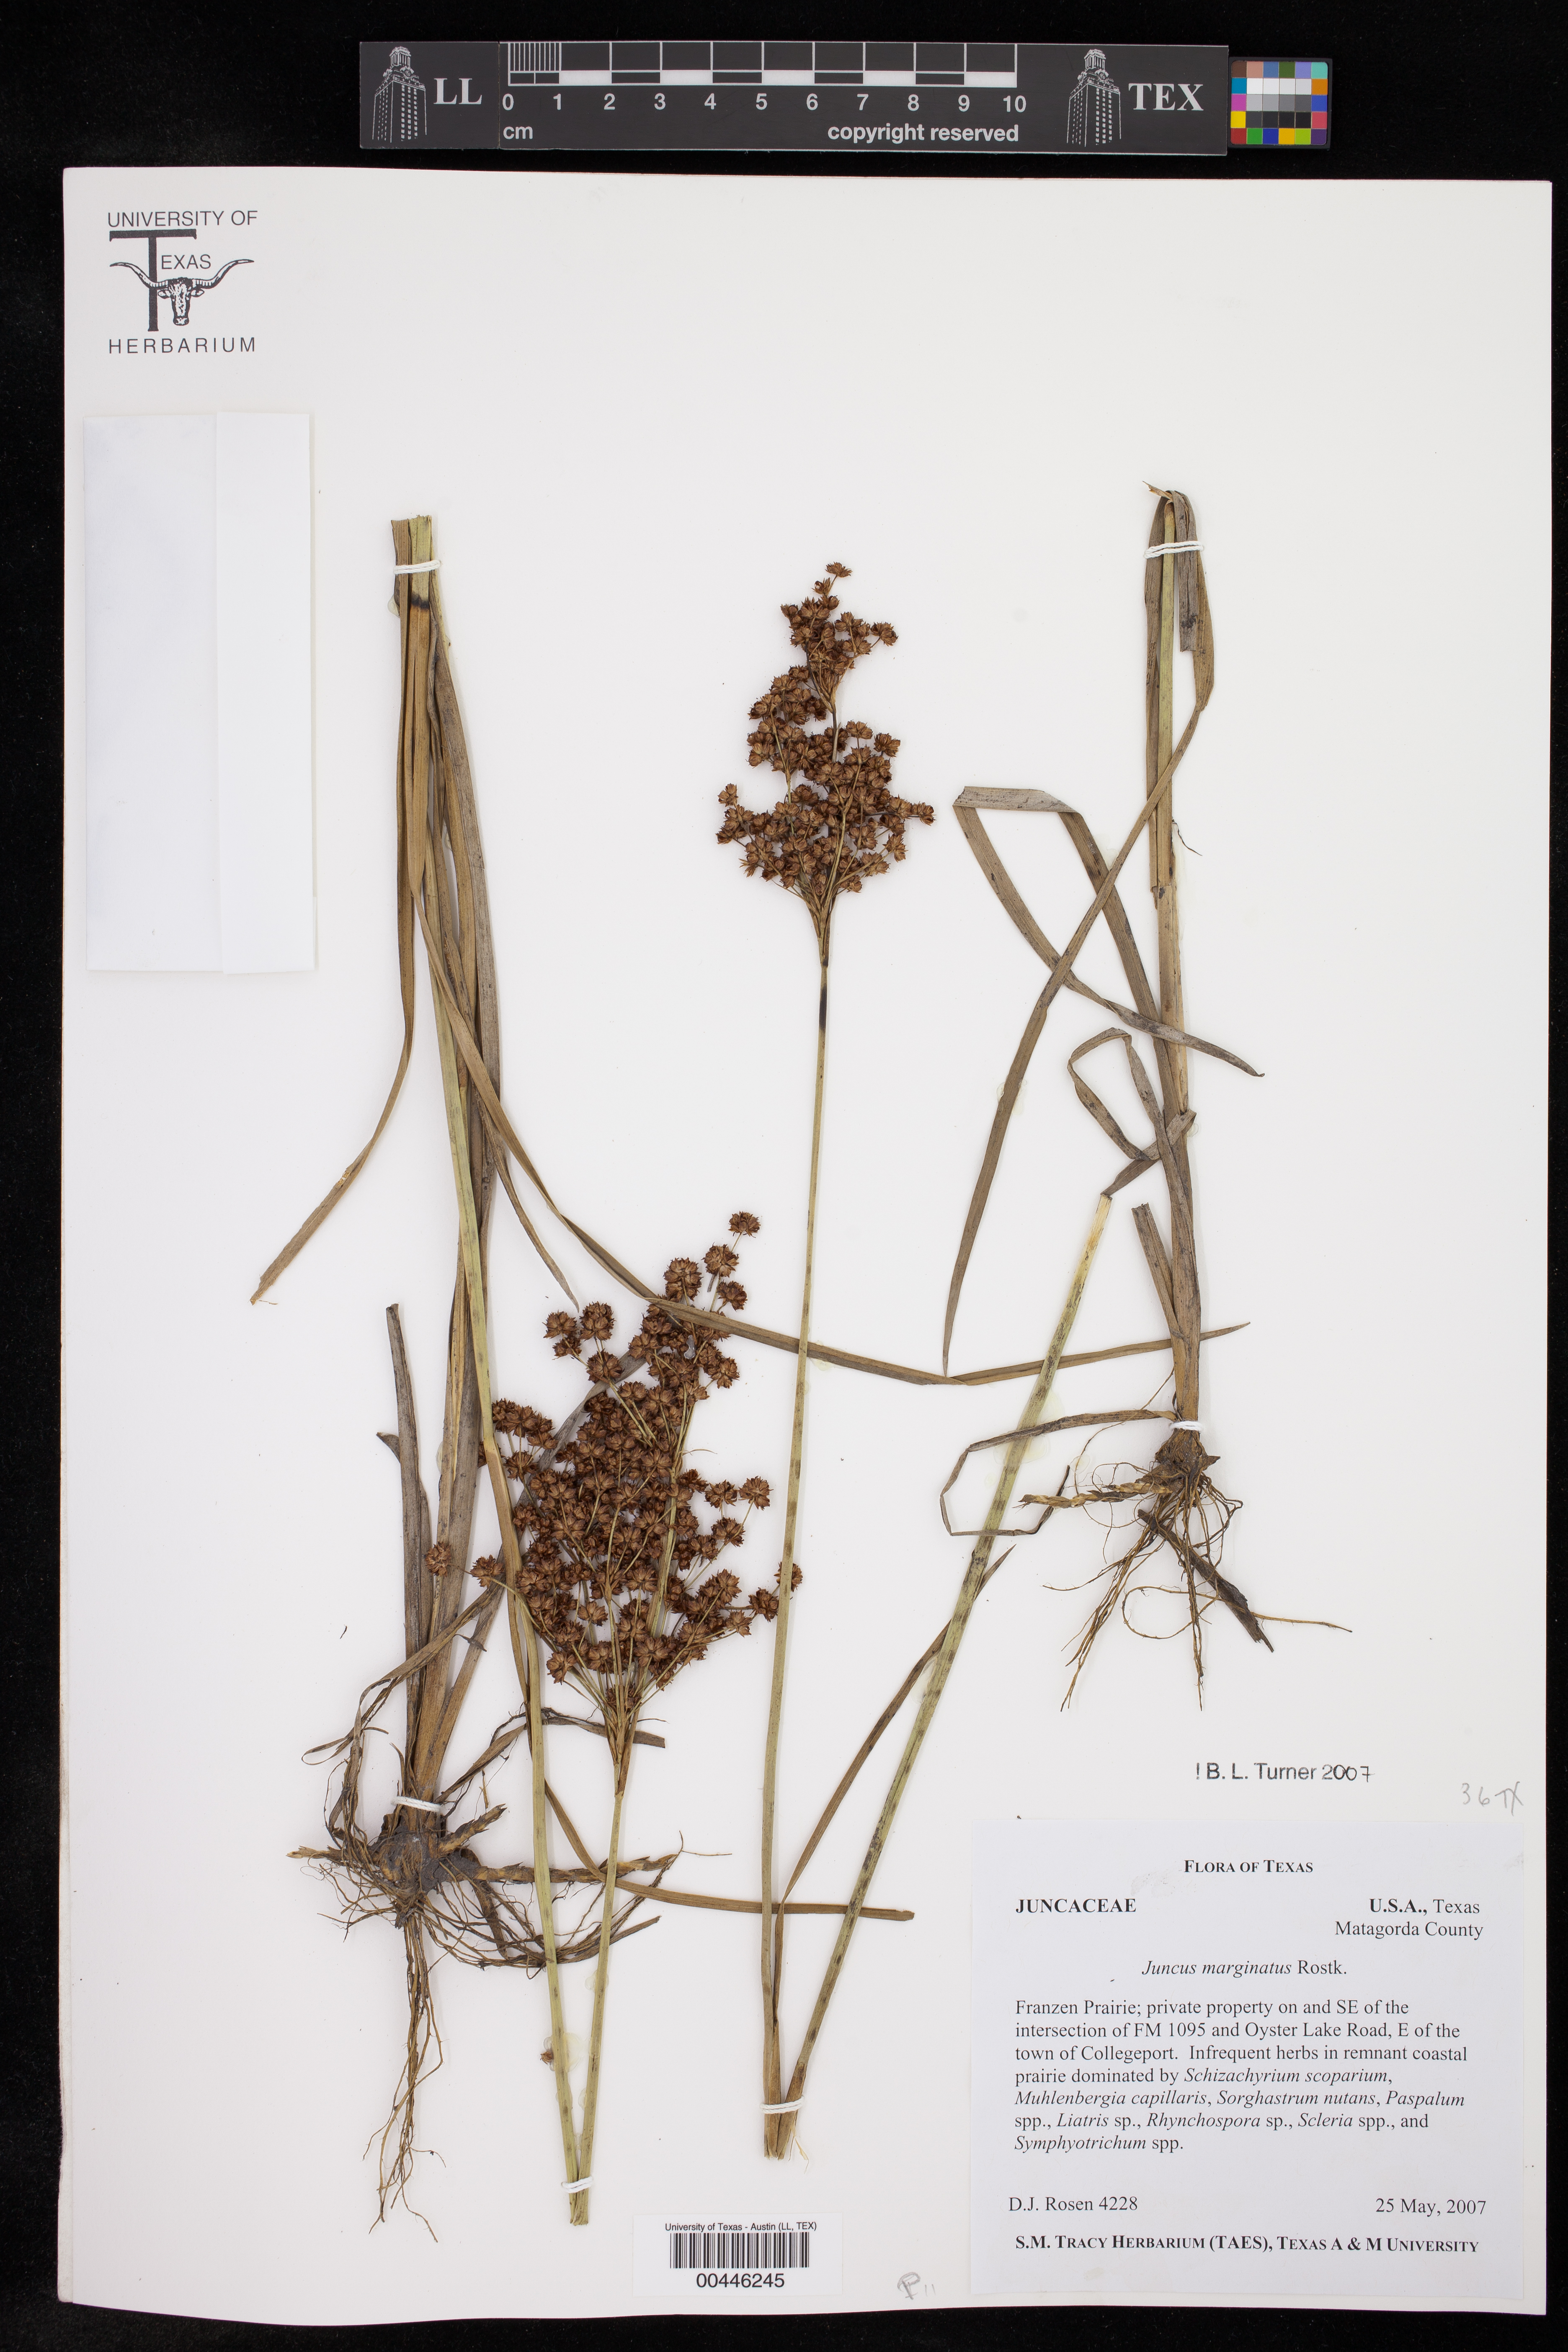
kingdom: Plantae
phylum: Tracheophyta
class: Liliopsida
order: Poales
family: Juncaceae
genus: Juncus
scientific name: Juncus marginatus
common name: Grass-leaf rush
